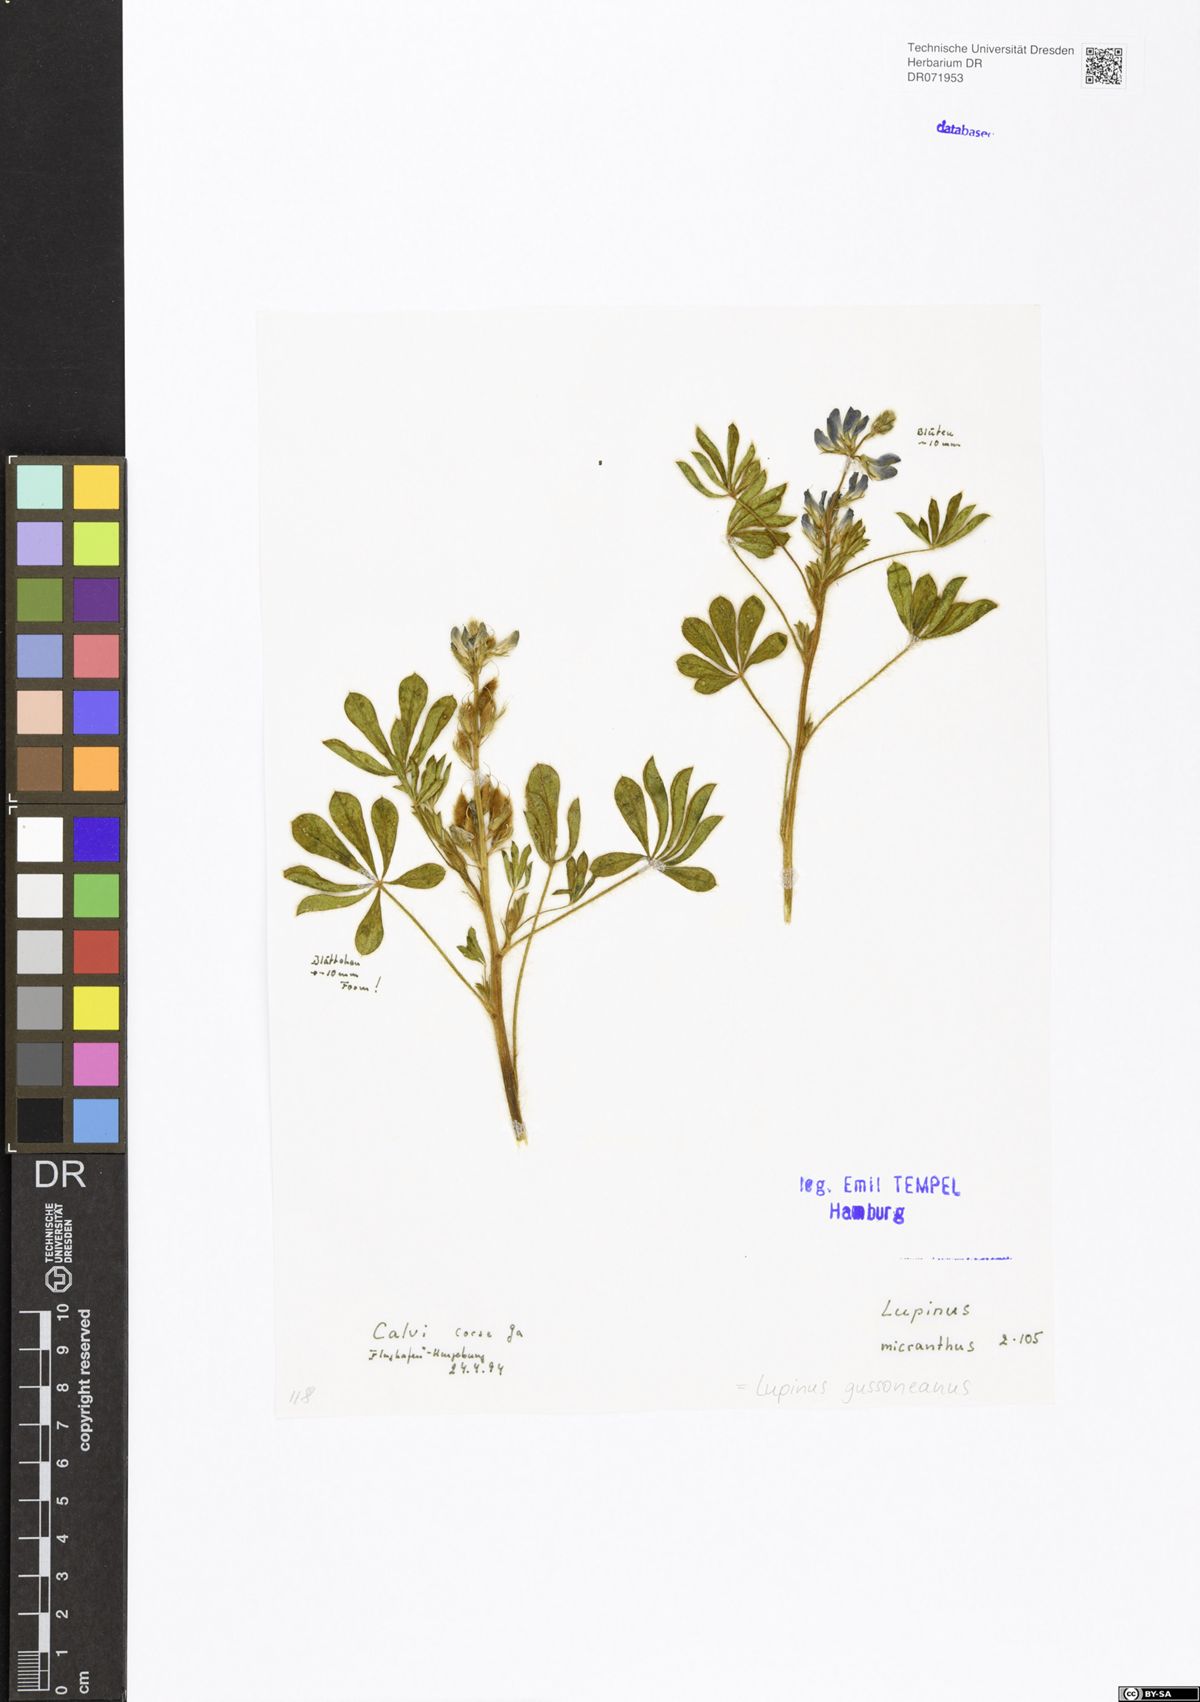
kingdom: Plantae
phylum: Tracheophyta
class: Magnoliopsida
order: Fabales
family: Fabaceae
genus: Lupinus
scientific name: Lupinus gussoneanus
